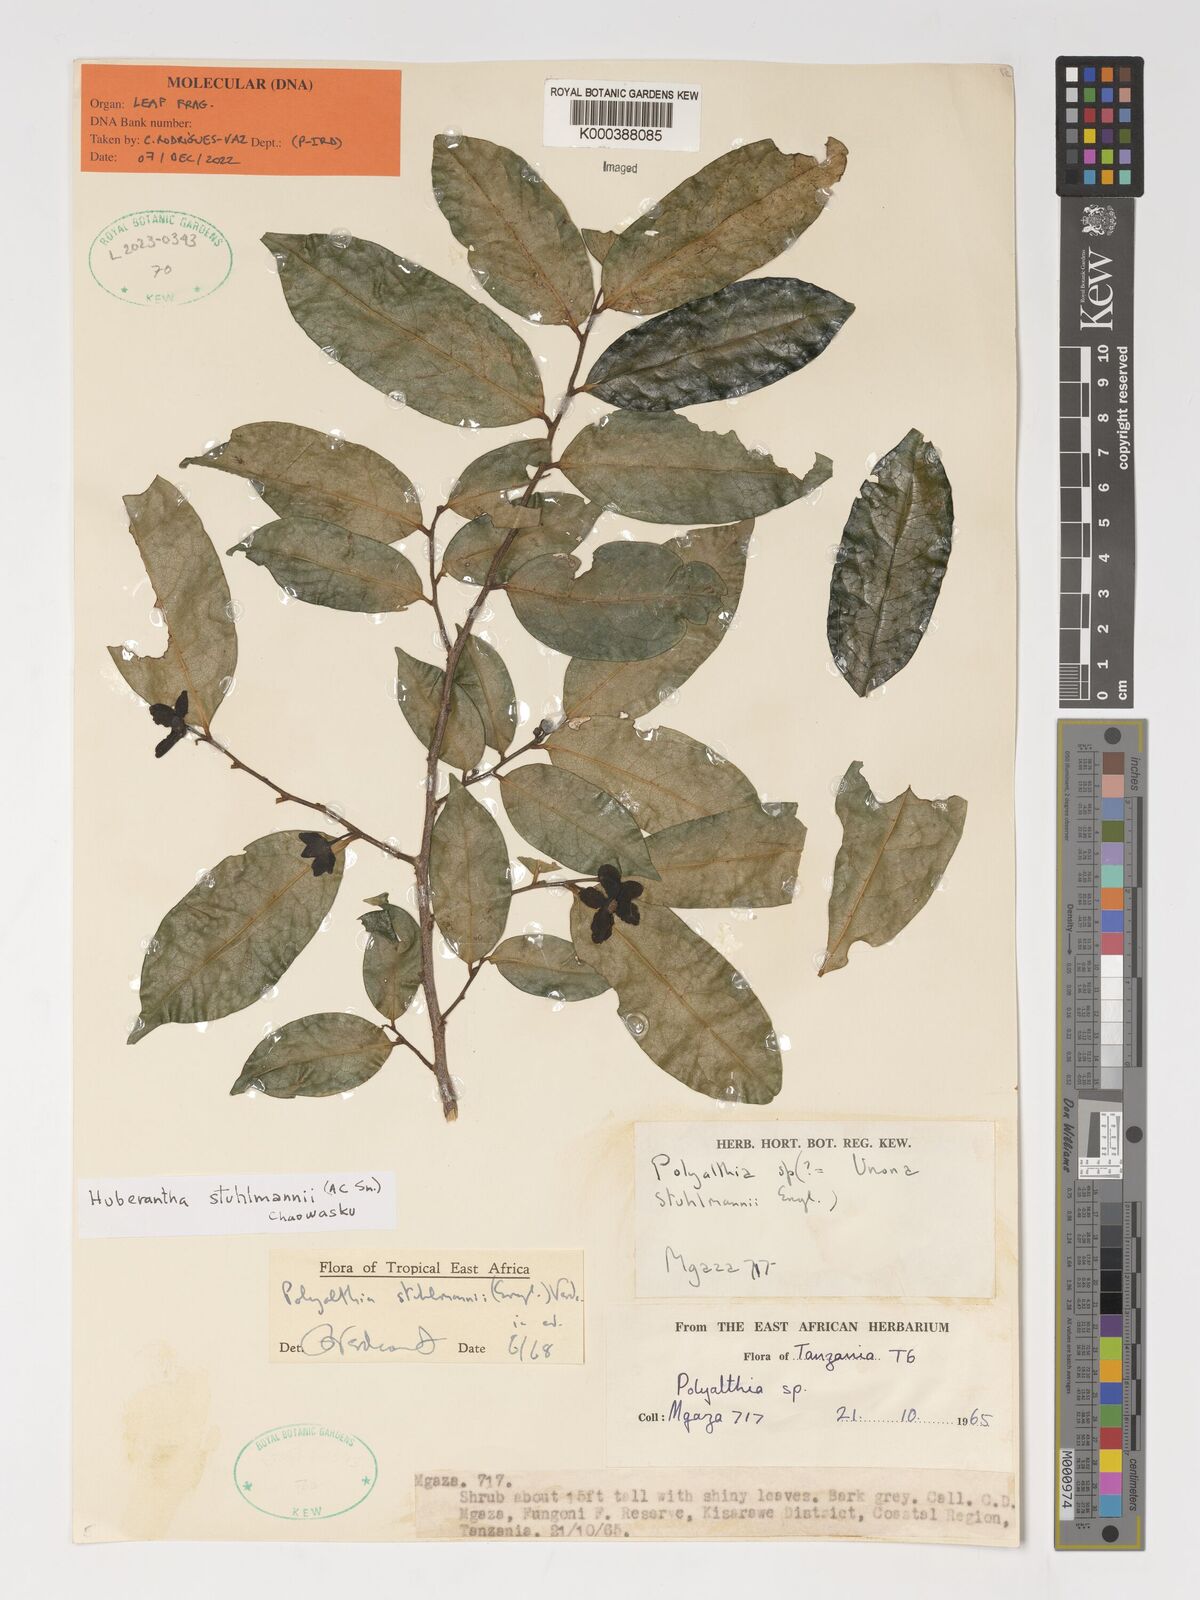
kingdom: Plantae
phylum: Tracheophyta
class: Magnoliopsida
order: Magnoliales
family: Annonaceae
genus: Hubera
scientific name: Hubera stuhlmannii
